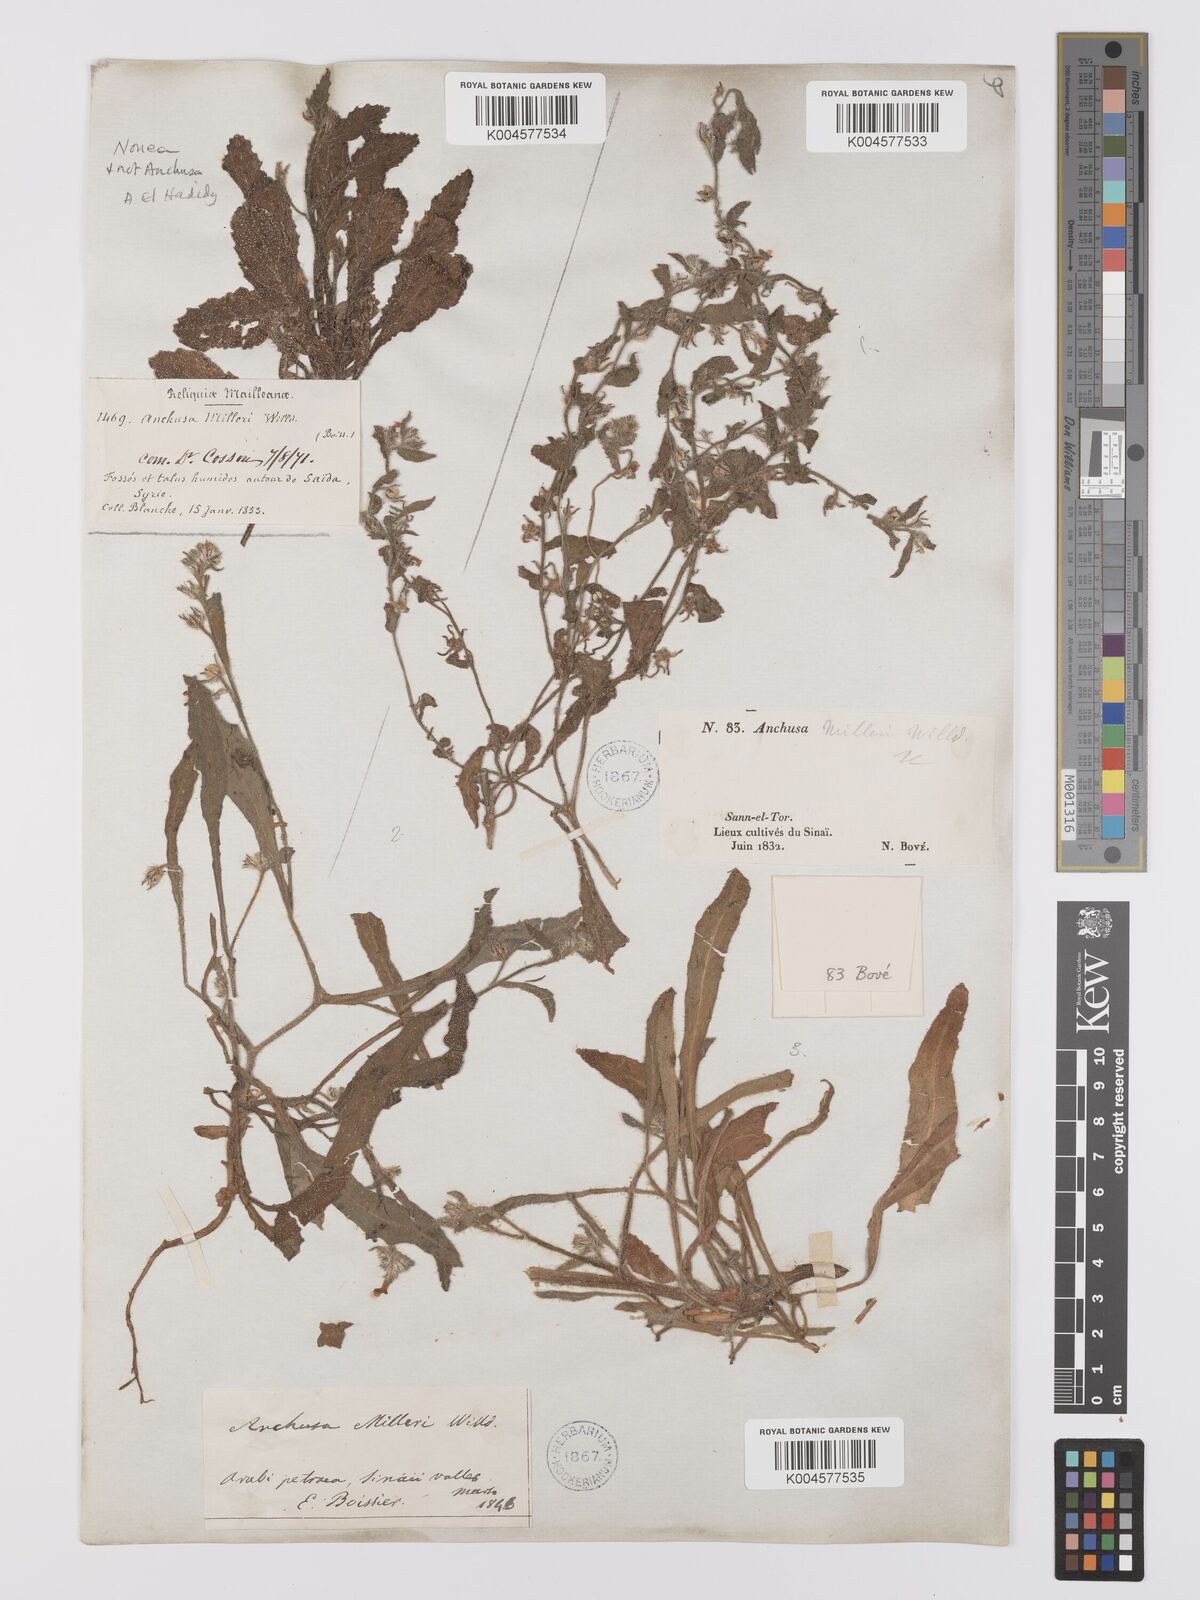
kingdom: Plantae
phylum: Tracheophyta
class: Magnoliopsida
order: Boraginales
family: Boraginaceae
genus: Anchusa
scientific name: Anchusa milleri
